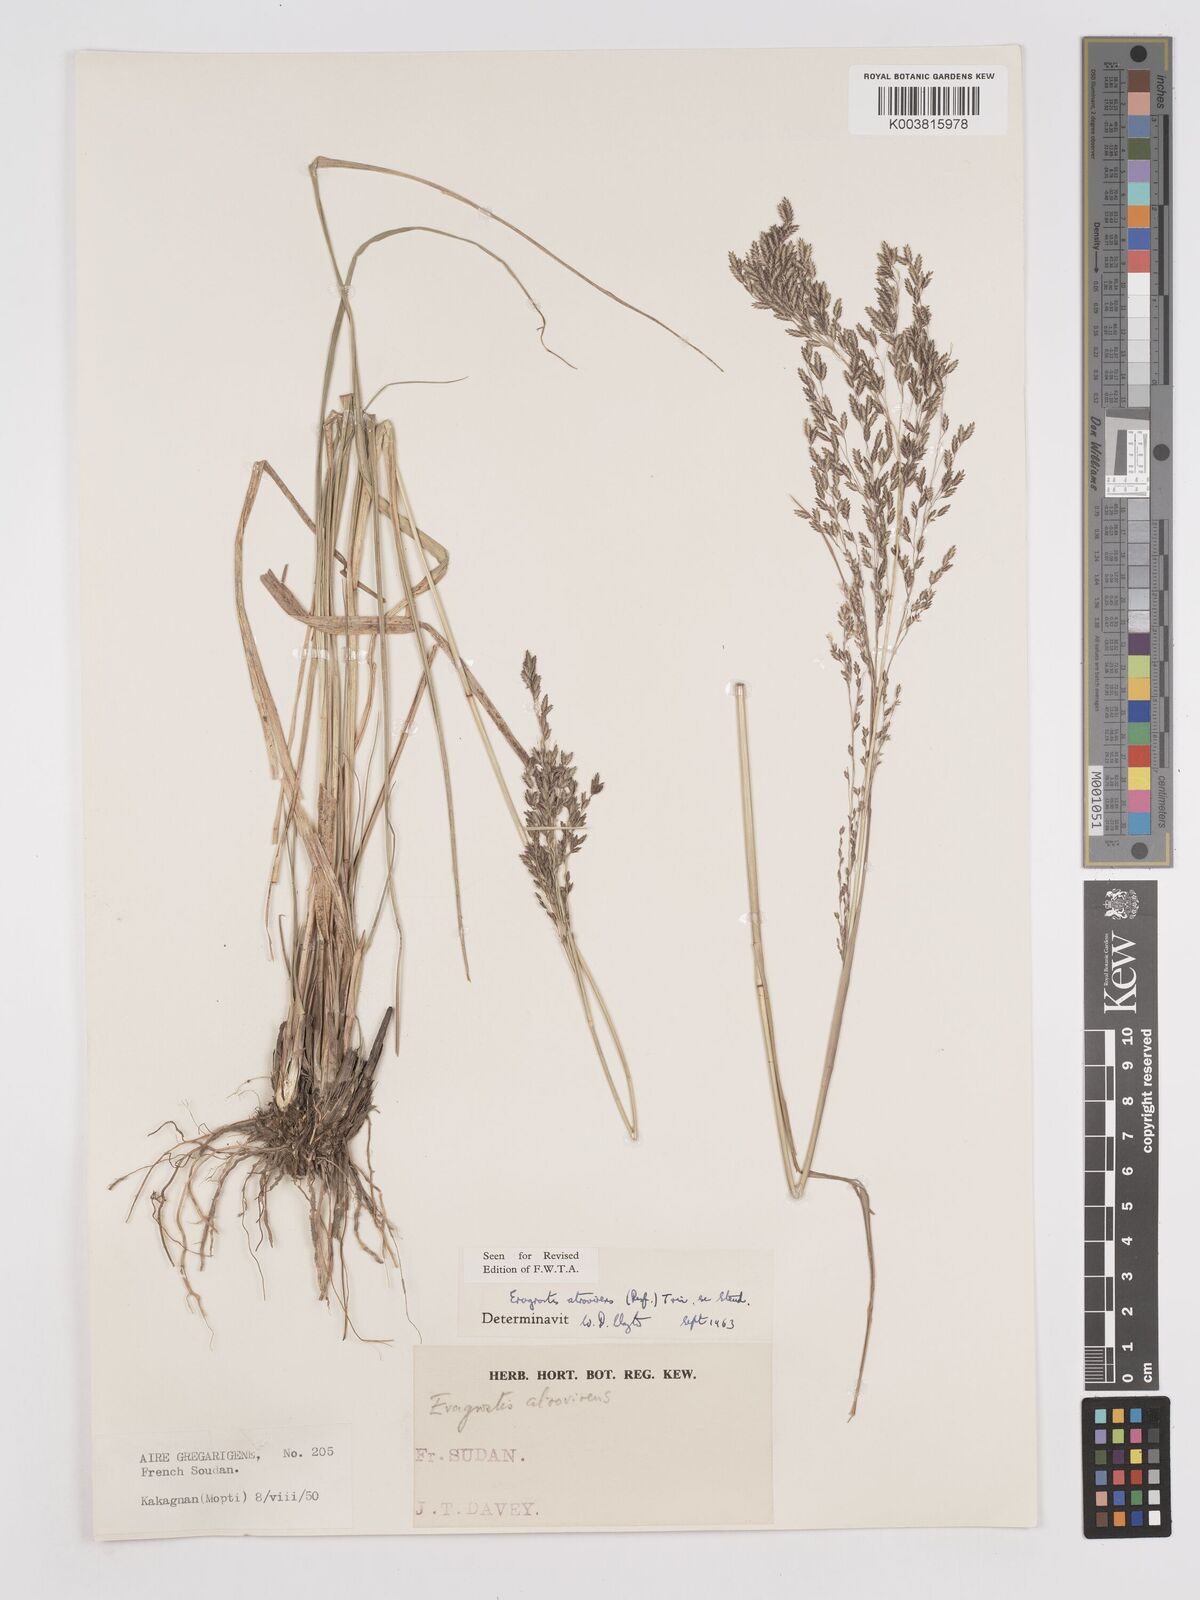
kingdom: Plantae
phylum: Tracheophyta
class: Liliopsida
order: Poales
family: Poaceae
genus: Eragrostis
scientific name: Eragrostis atrovirens
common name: Thalia lovegrass
